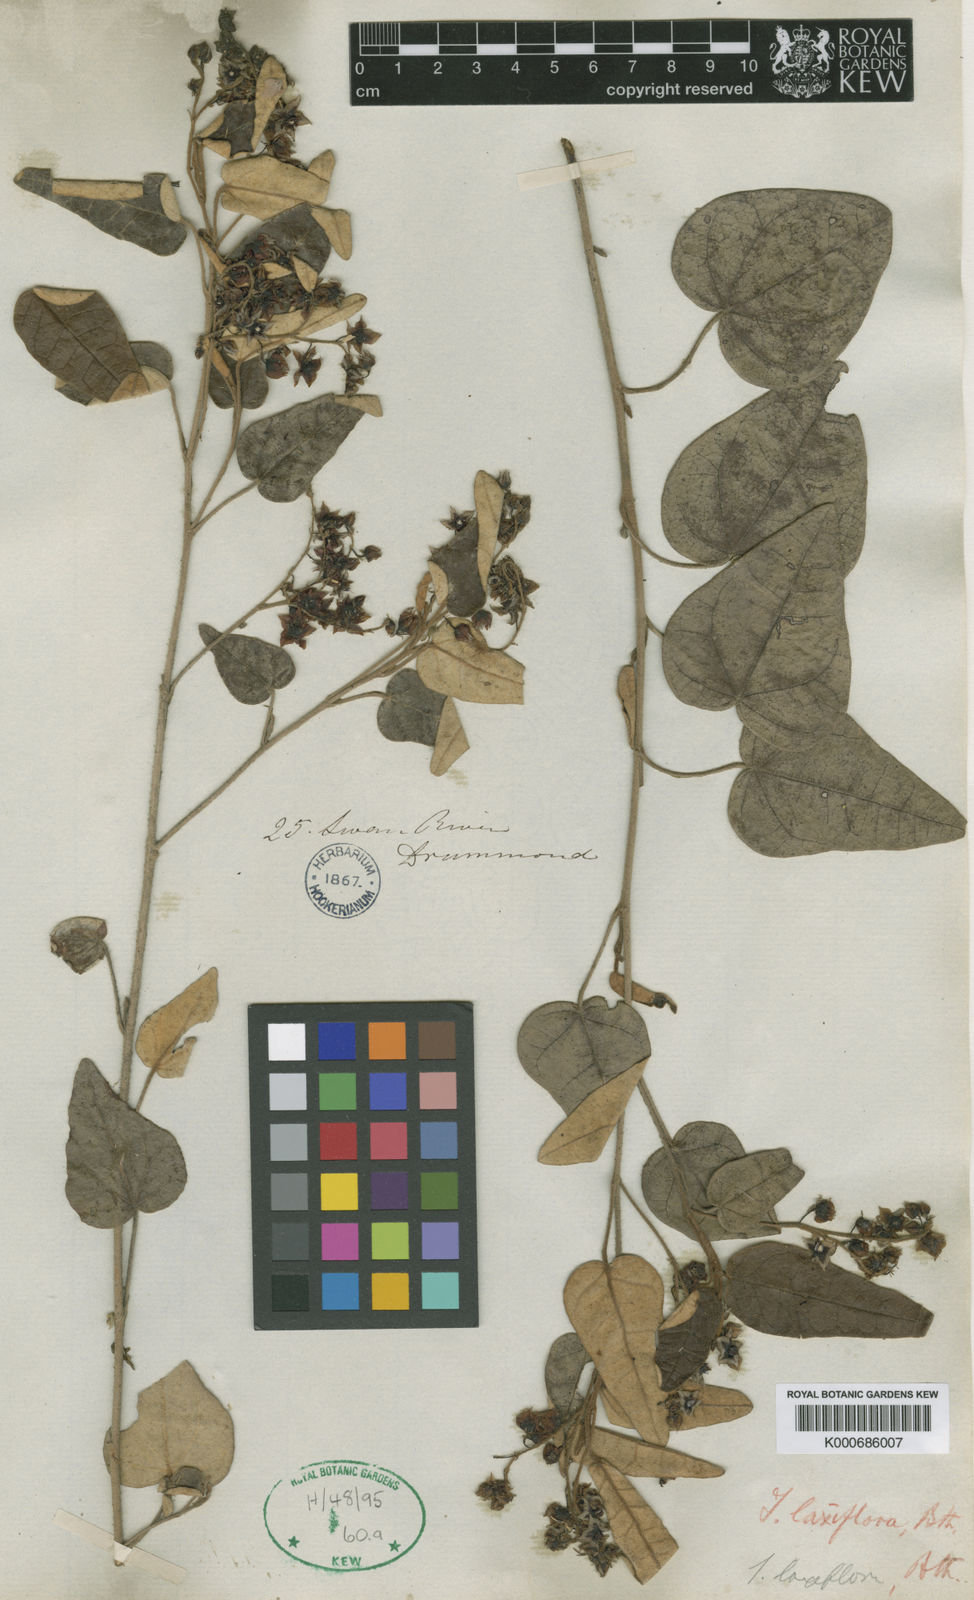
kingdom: Plantae
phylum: Tracheophyta
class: Magnoliopsida
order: Malvales
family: Malvaceae
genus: Lasiopetalum
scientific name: Lasiopetalum laxiflorum
